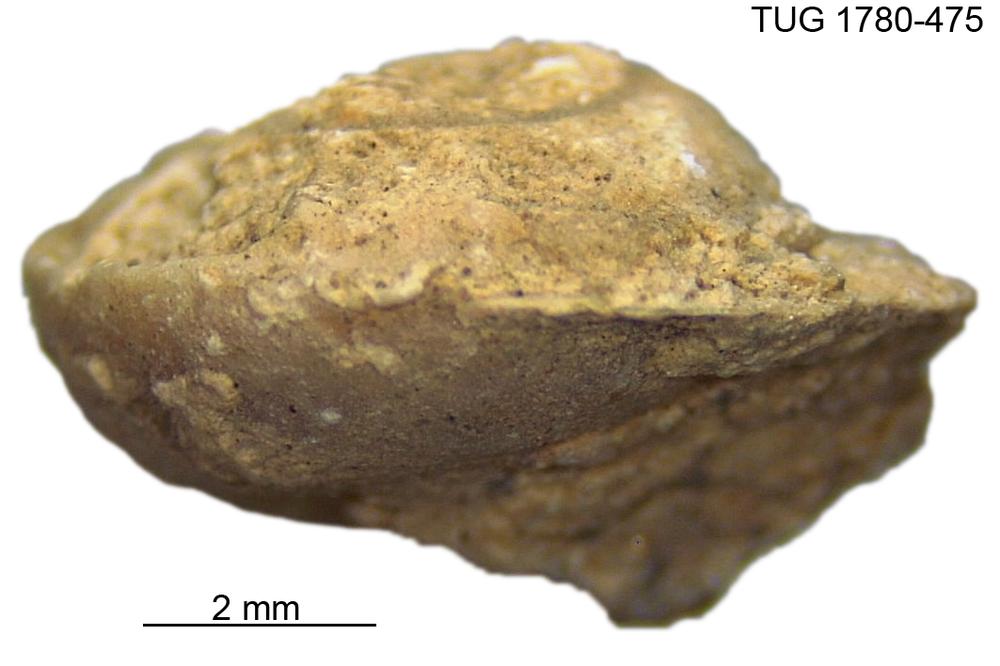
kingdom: Animalia
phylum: Mollusca
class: Gastropoda
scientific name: Gastropoda
